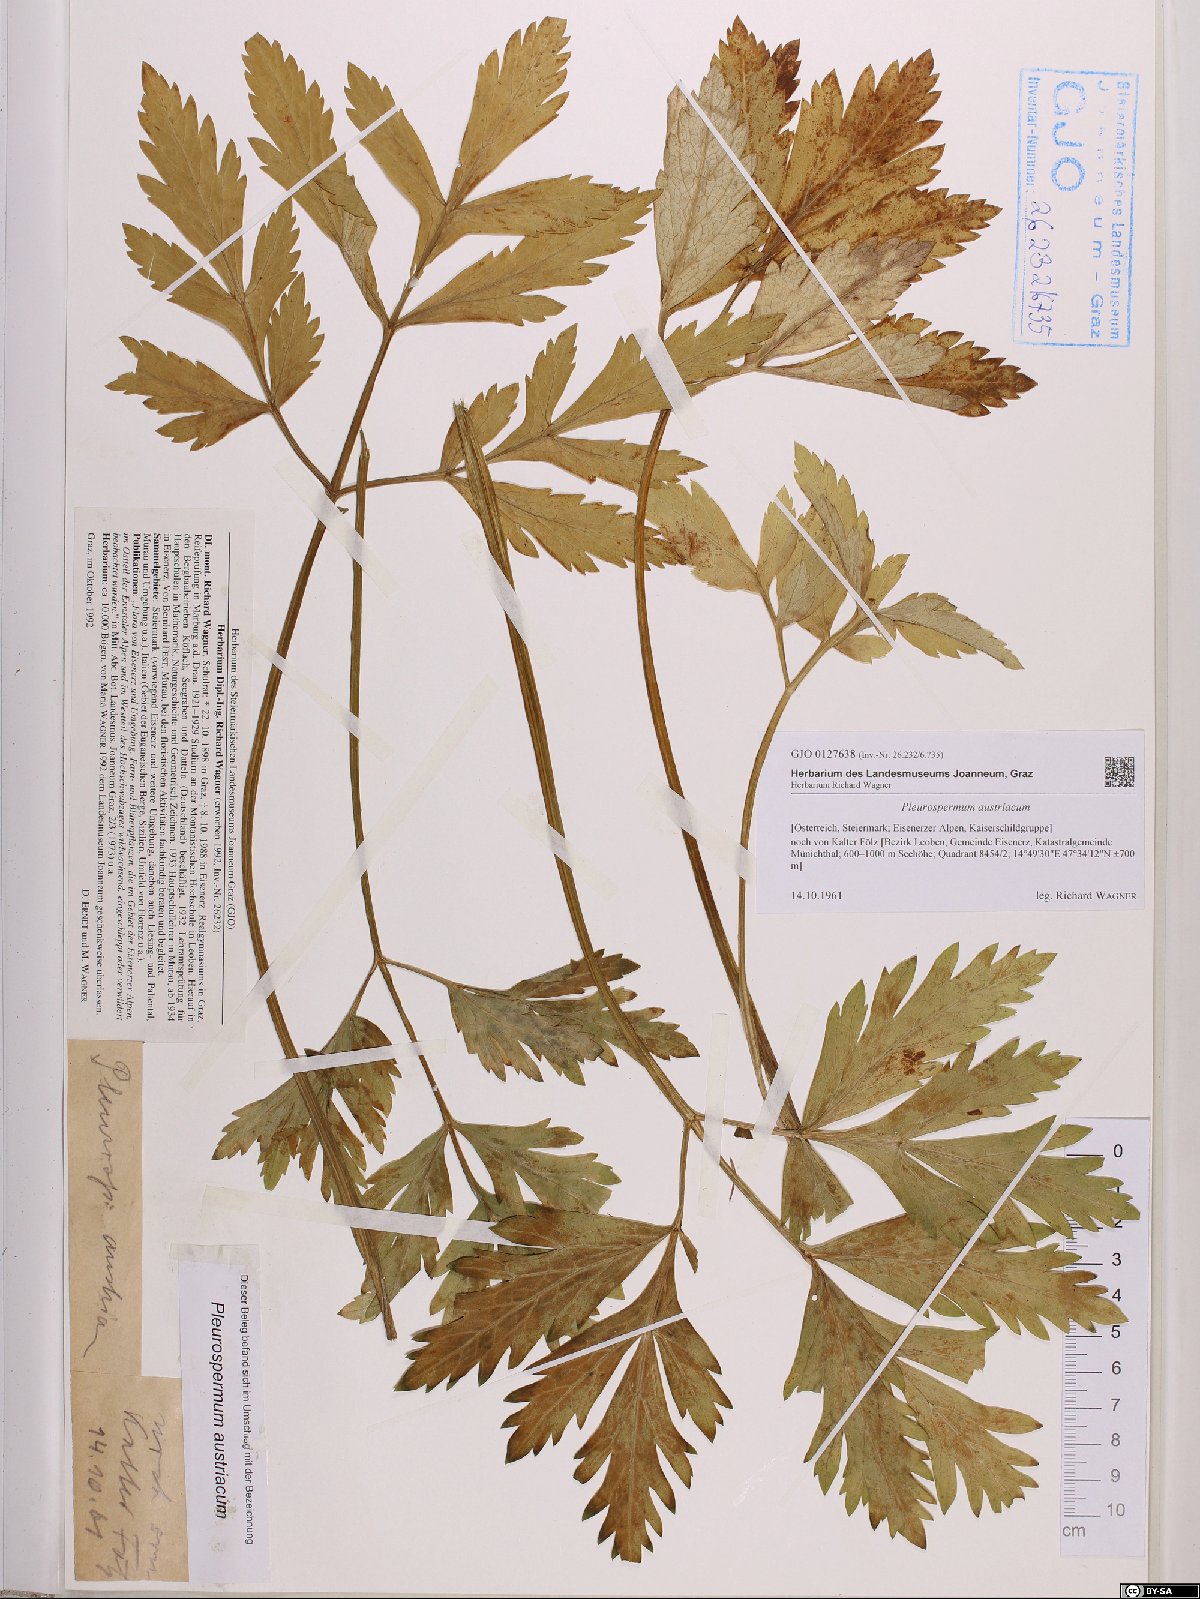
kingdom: Plantae
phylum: Tracheophyta
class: Magnoliopsida
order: Apiales
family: Apiaceae
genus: Pleurospermum
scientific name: Pleurospermum austriacum
